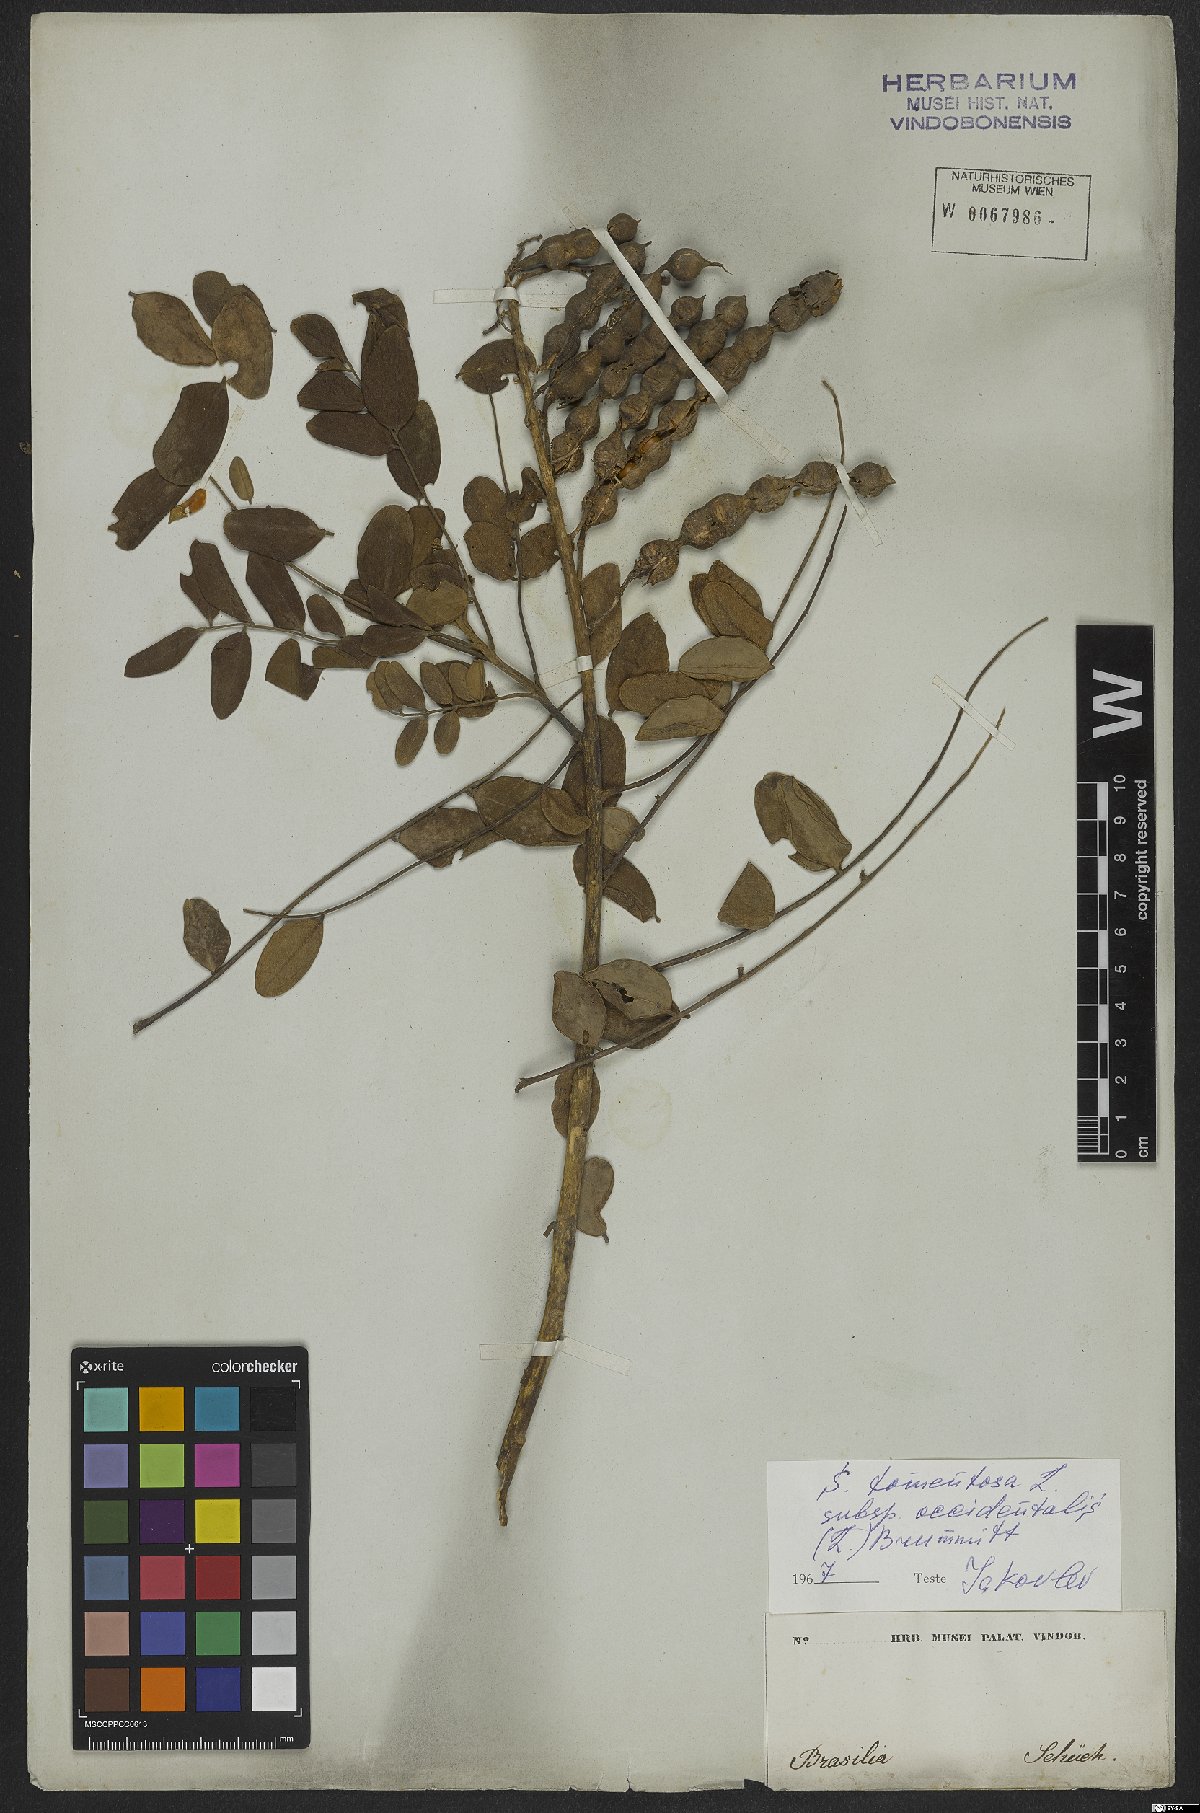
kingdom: Plantae
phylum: Tracheophyta
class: Magnoliopsida
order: Fabales
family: Fabaceae
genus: Sophora
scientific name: Sophora tomentosa
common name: Yellow necklacepod
